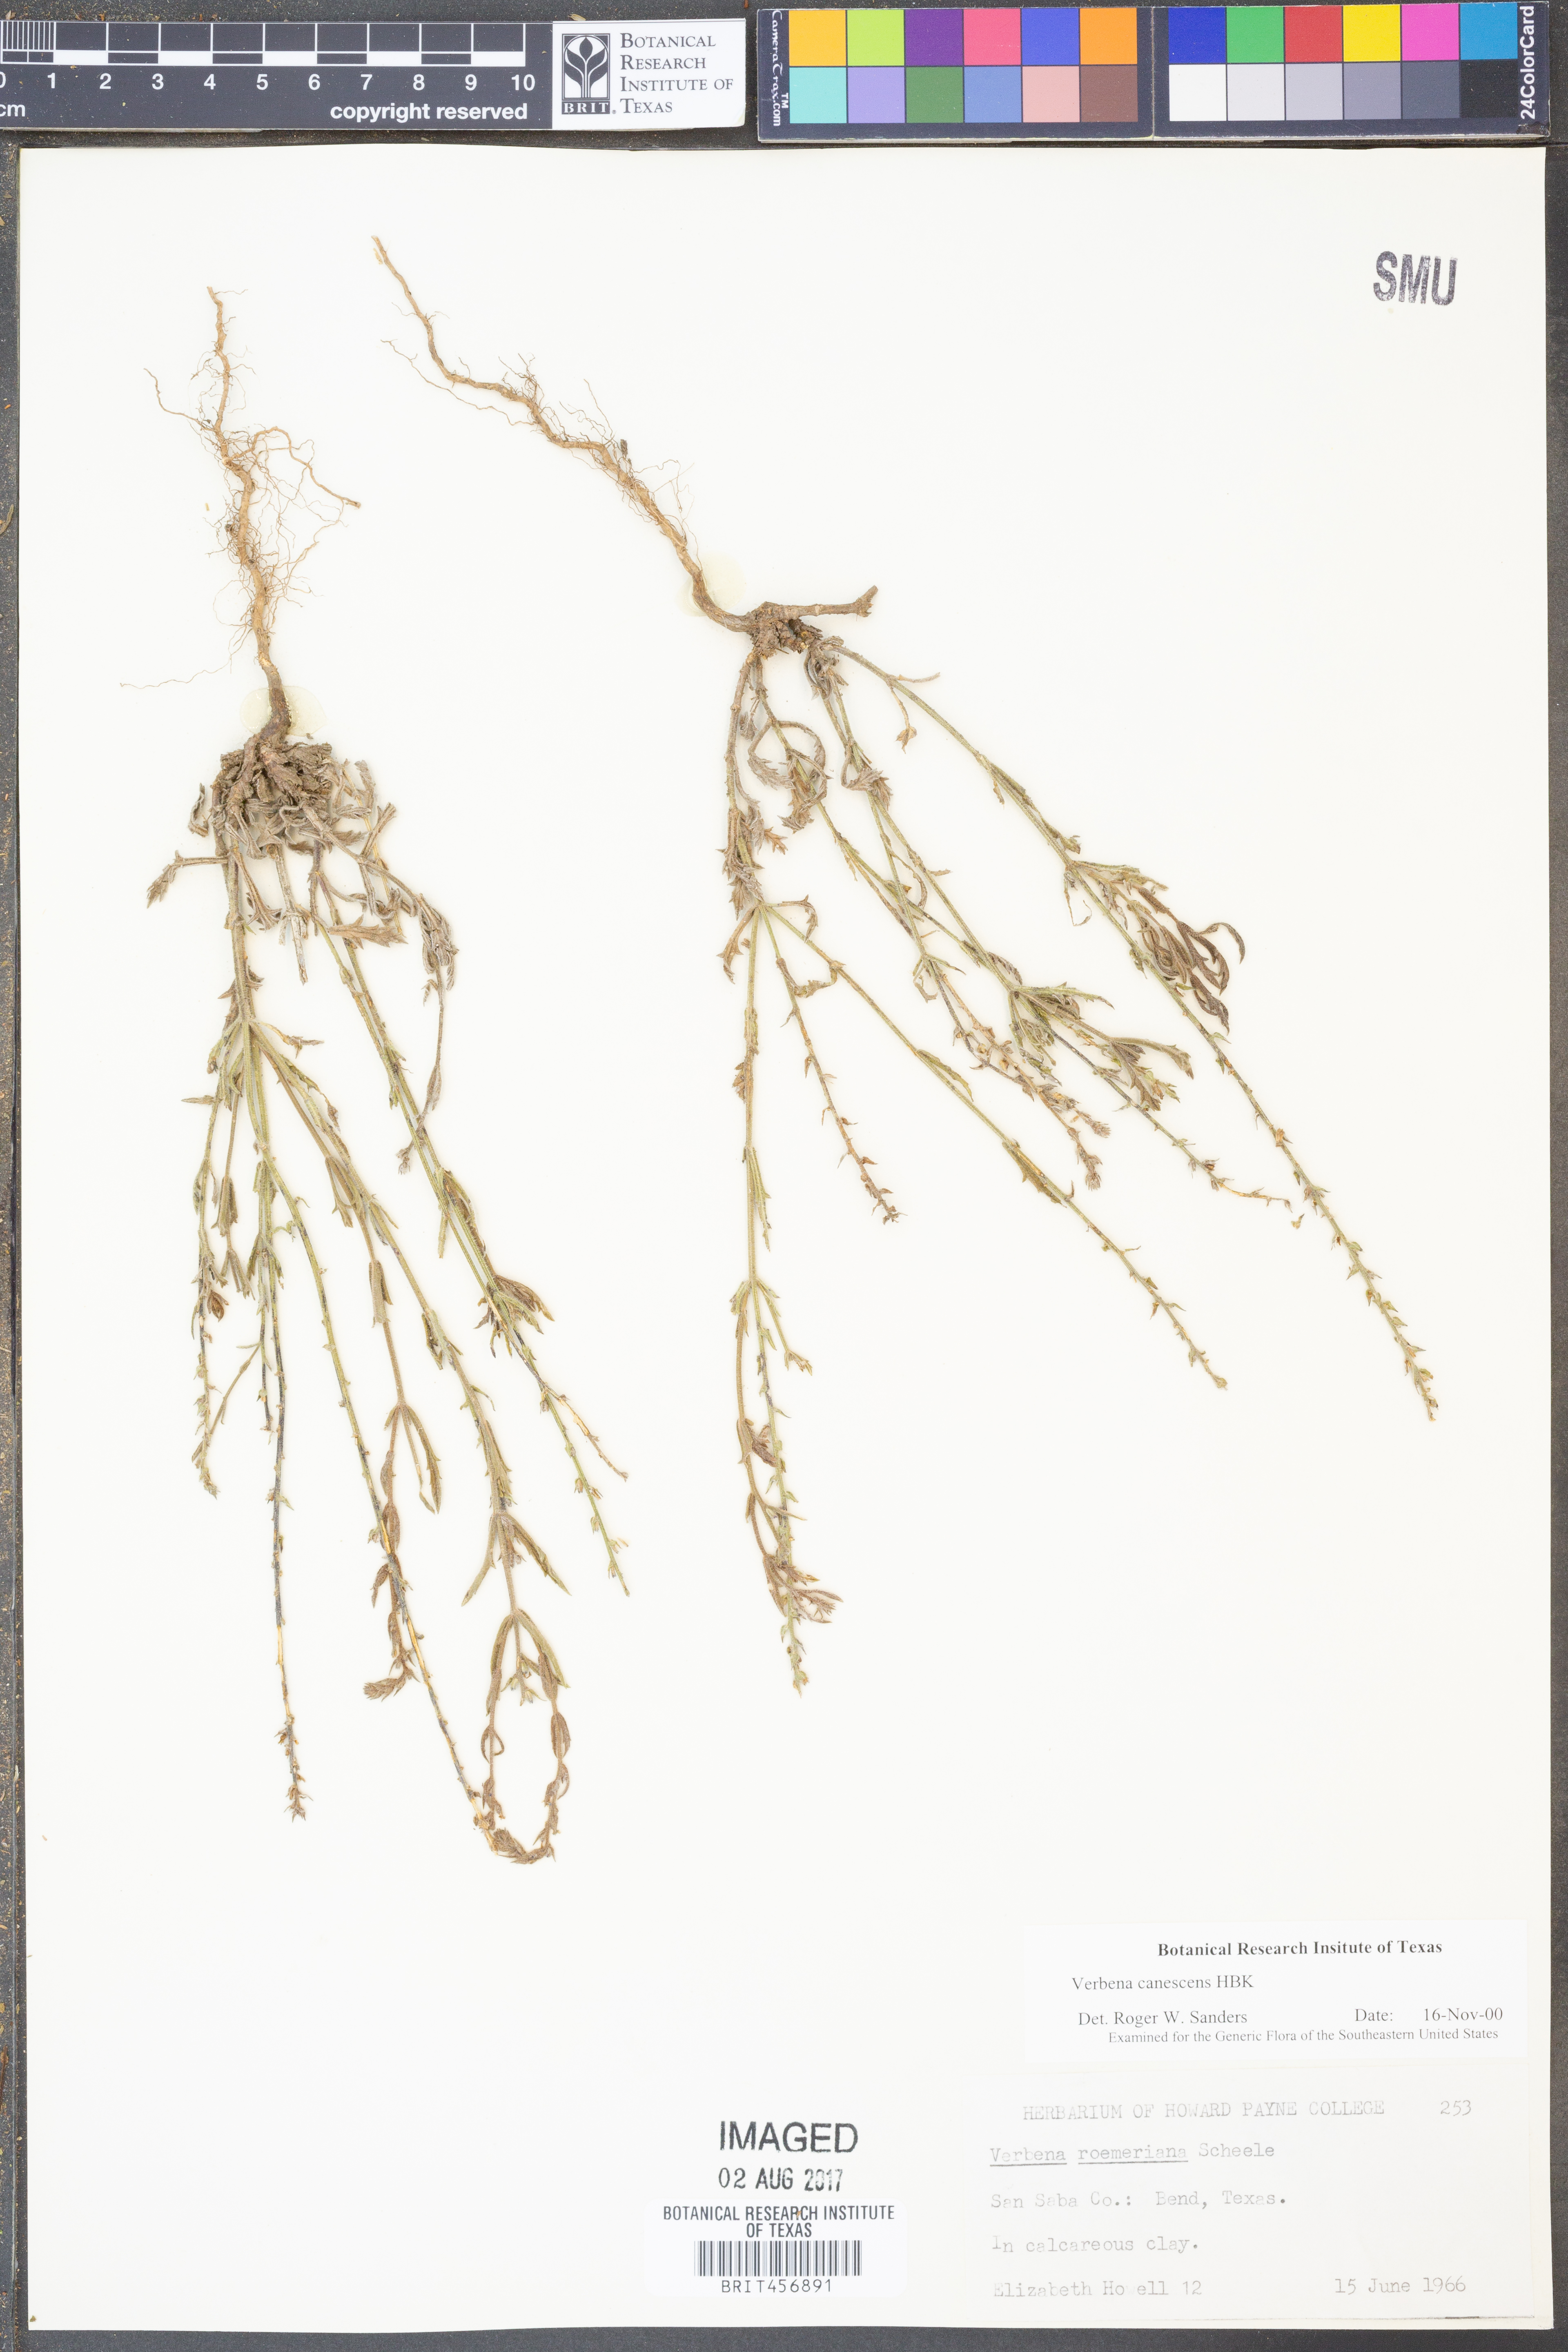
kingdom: Plantae
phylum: Tracheophyta
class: Magnoliopsida
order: Lamiales
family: Verbenaceae
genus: Verbena
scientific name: Verbena canescens
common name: Gray vervain
